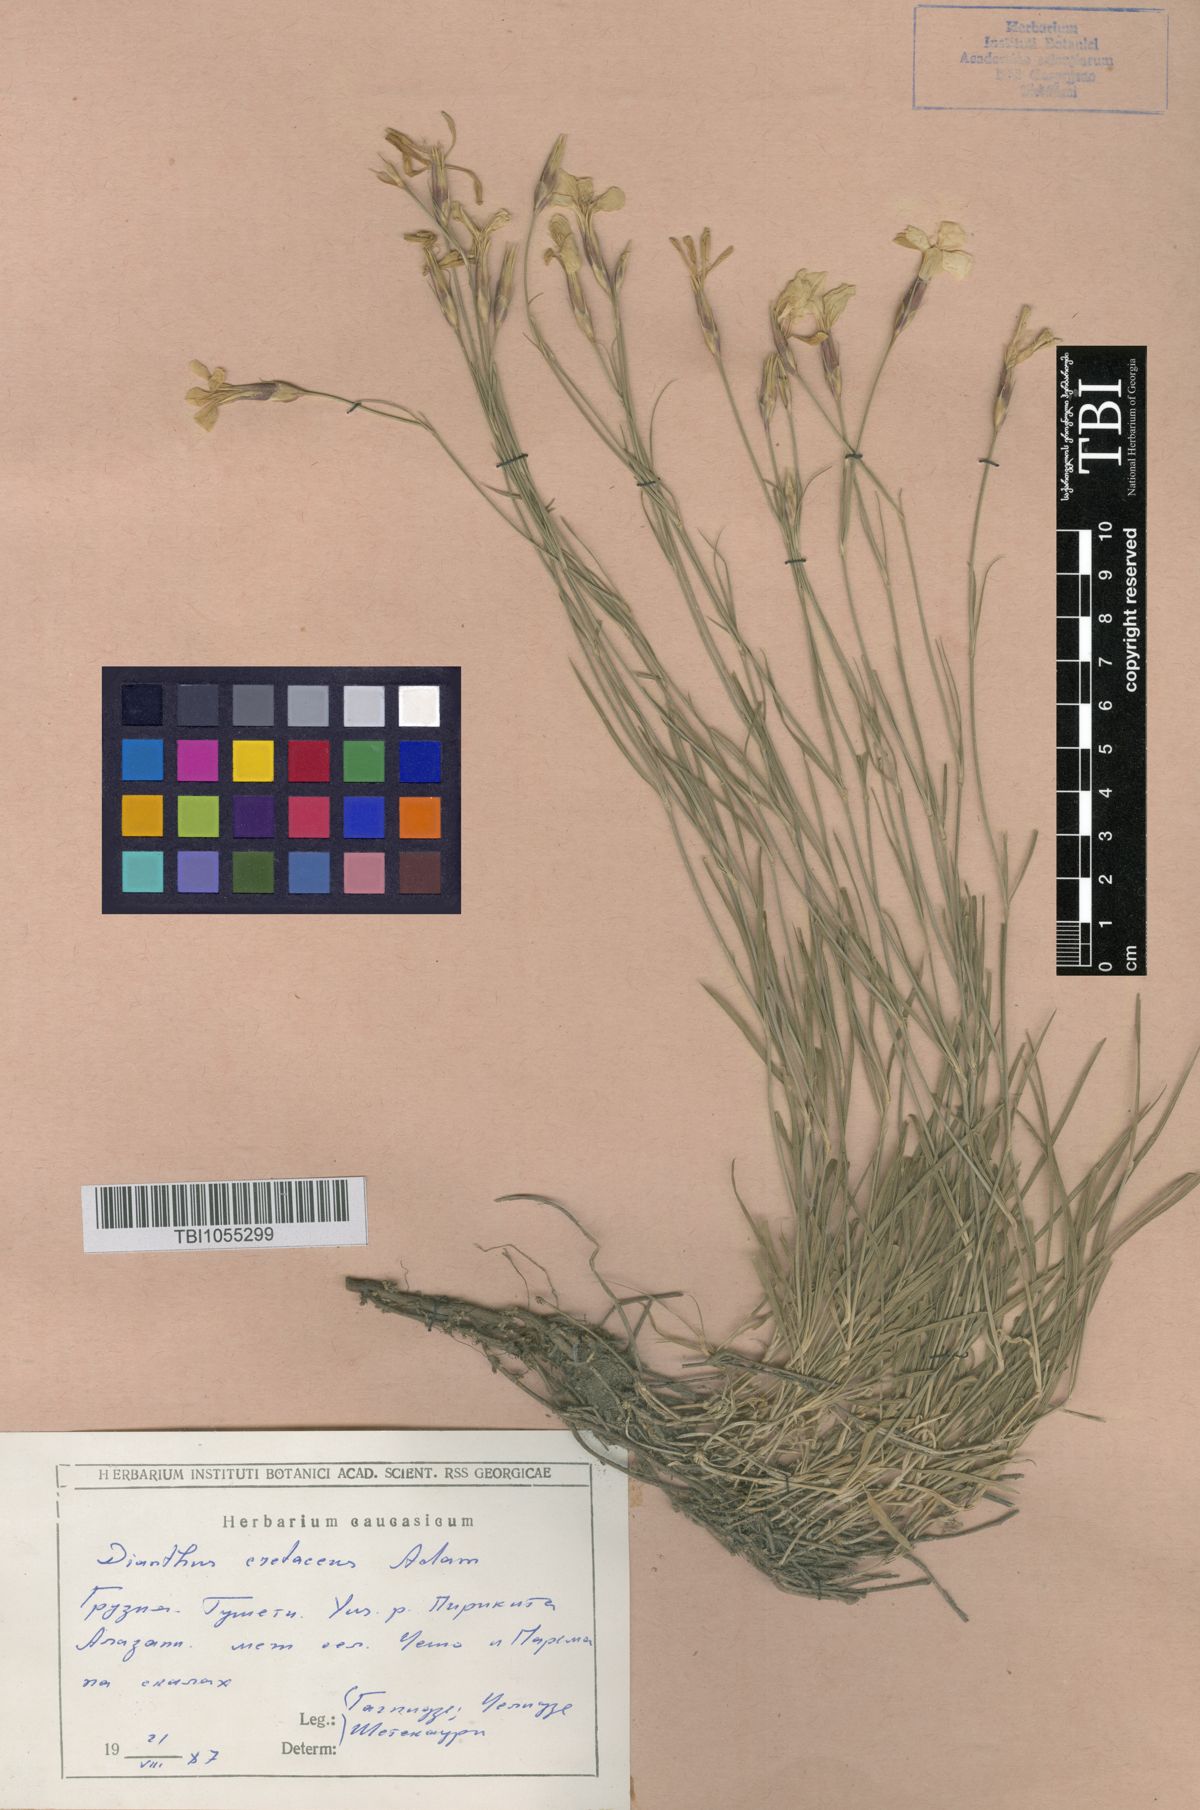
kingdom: Plantae
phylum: Tracheophyta
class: Magnoliopsida
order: Caryophyllales
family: Caryophyllaceae
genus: Dianthus
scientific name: Dianthus cretaceus
